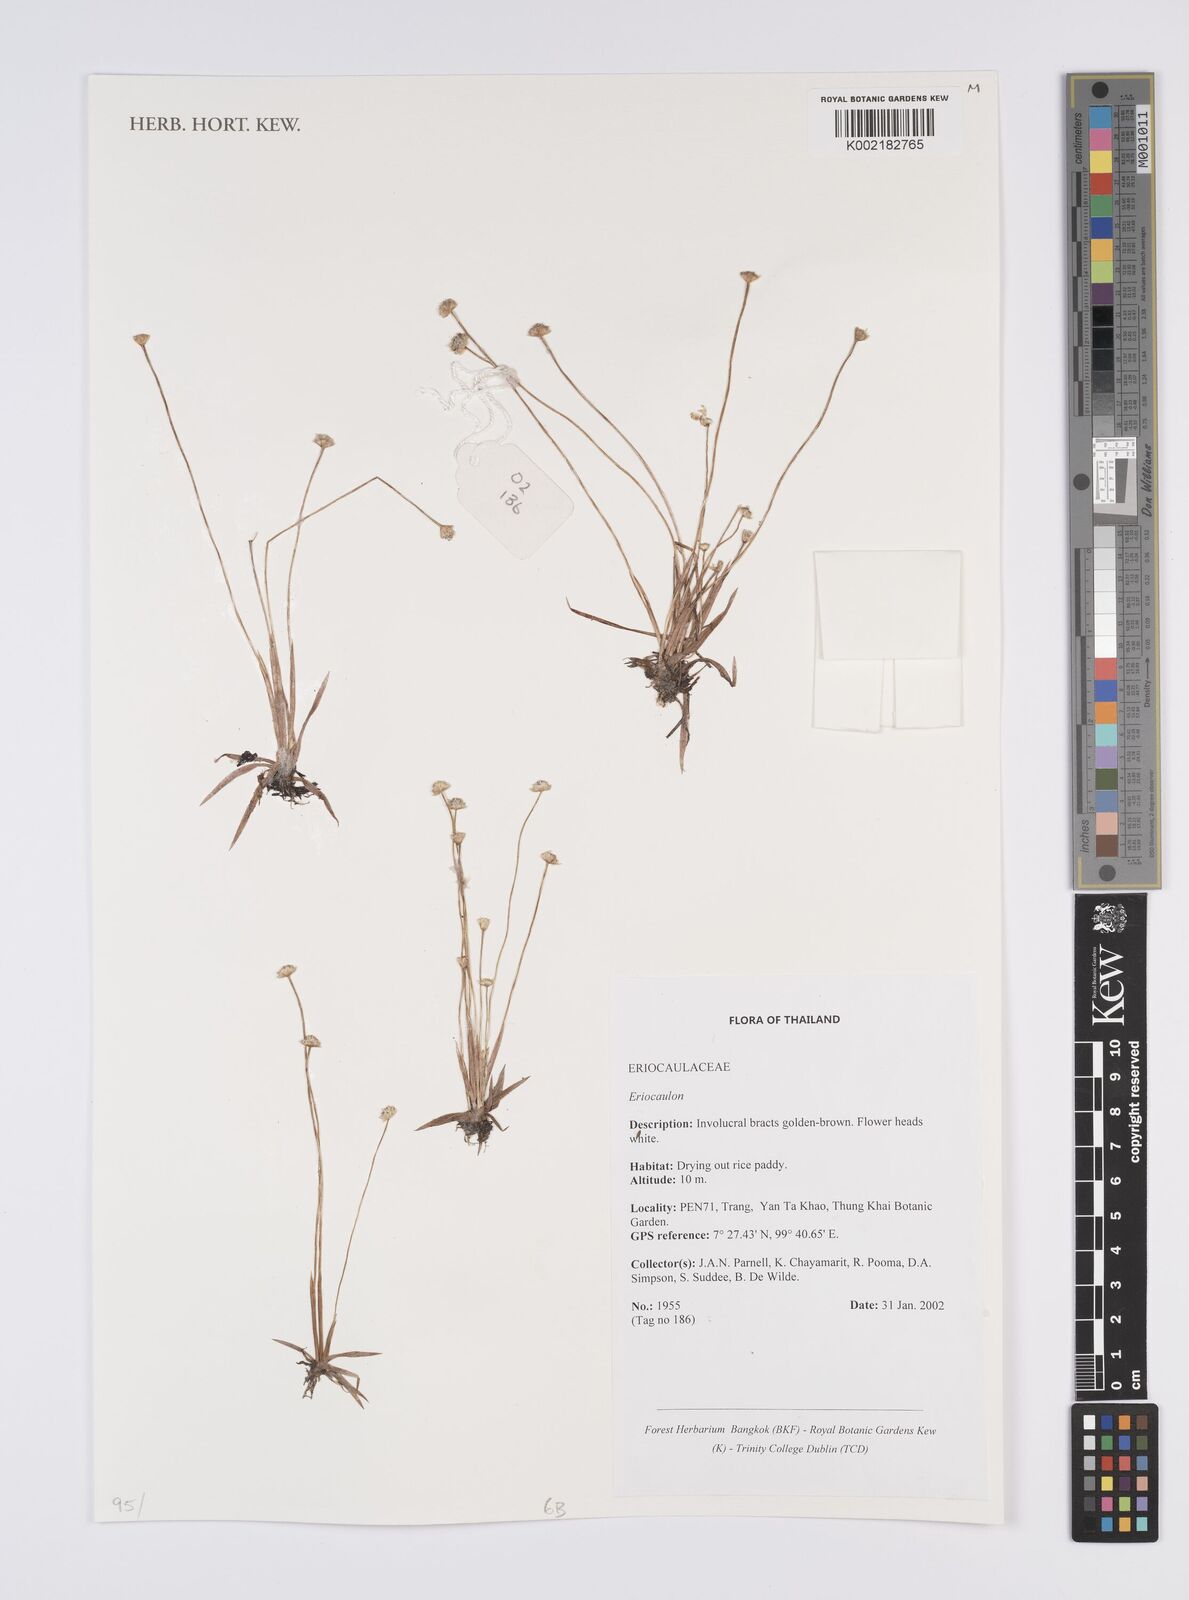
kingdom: Plantae
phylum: Tracheophyta
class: Liliopsida
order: Poales
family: Eriocaulaceae
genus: Eriocaulon
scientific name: Eriocaulon
